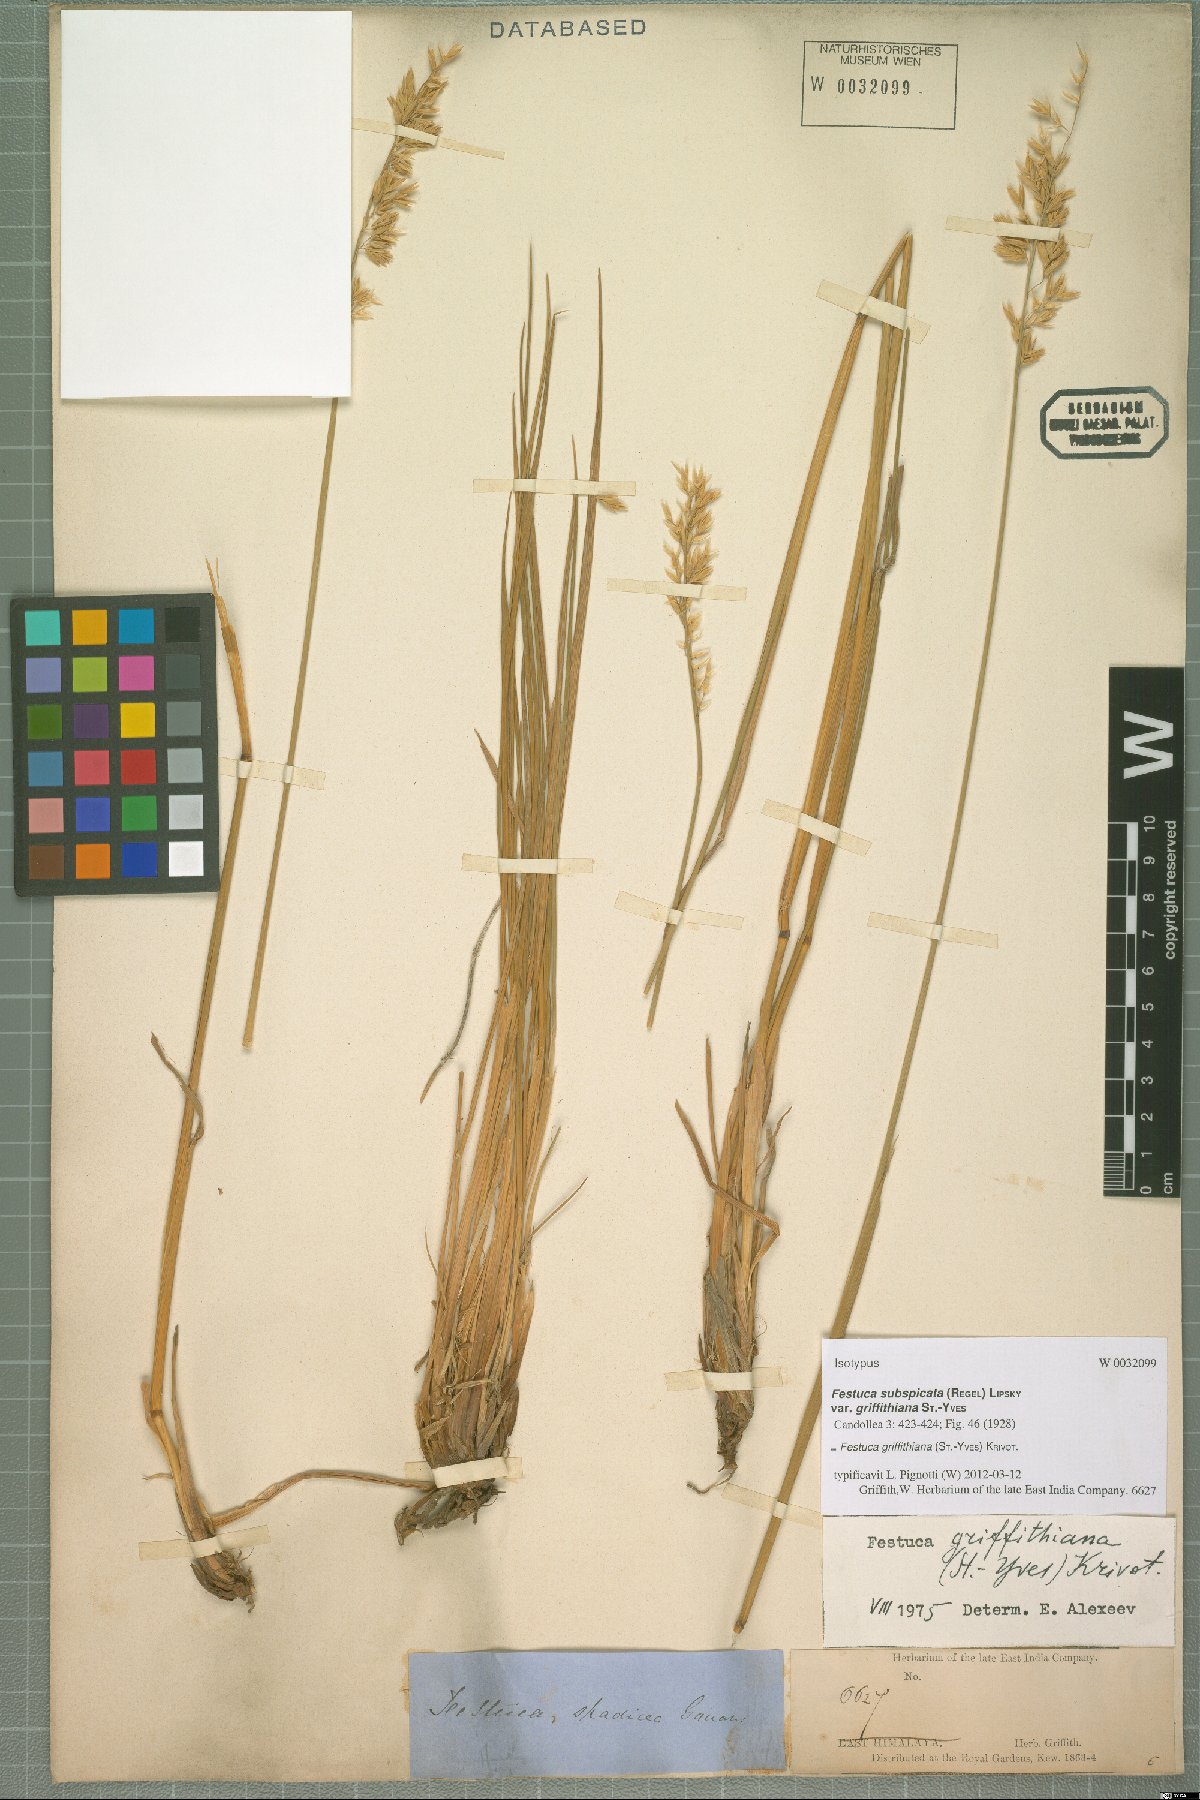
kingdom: Plantae
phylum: Tracheophyta
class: Liliopsida
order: Poales
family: Poaceae
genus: Festuca
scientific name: Festuca karatavica
